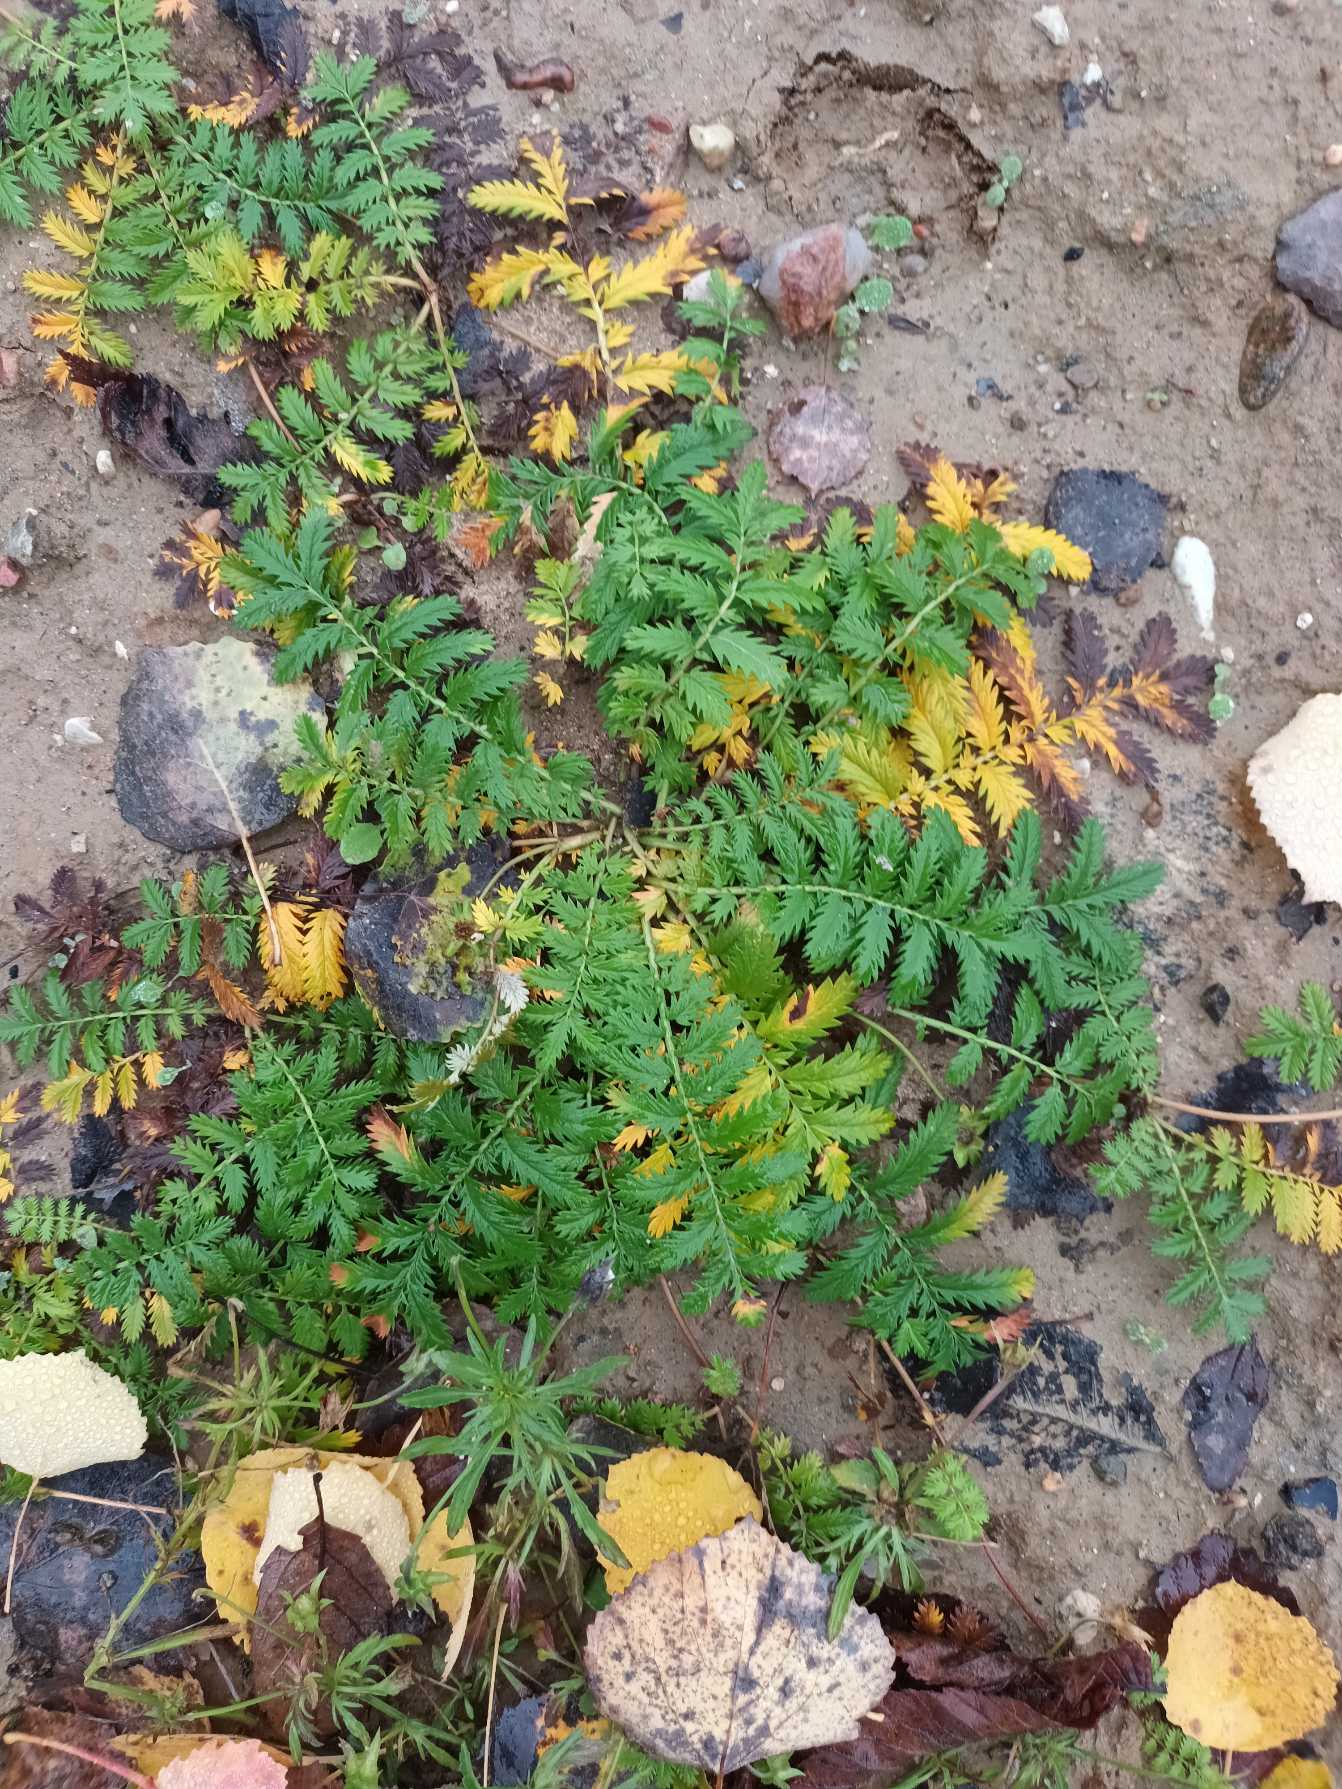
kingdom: Plantae
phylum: Tracheophyta
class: Magnoliopsida
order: Rosales
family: Rosaceae
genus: Argentina
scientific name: Argentina anserina
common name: Gåsepotentil
